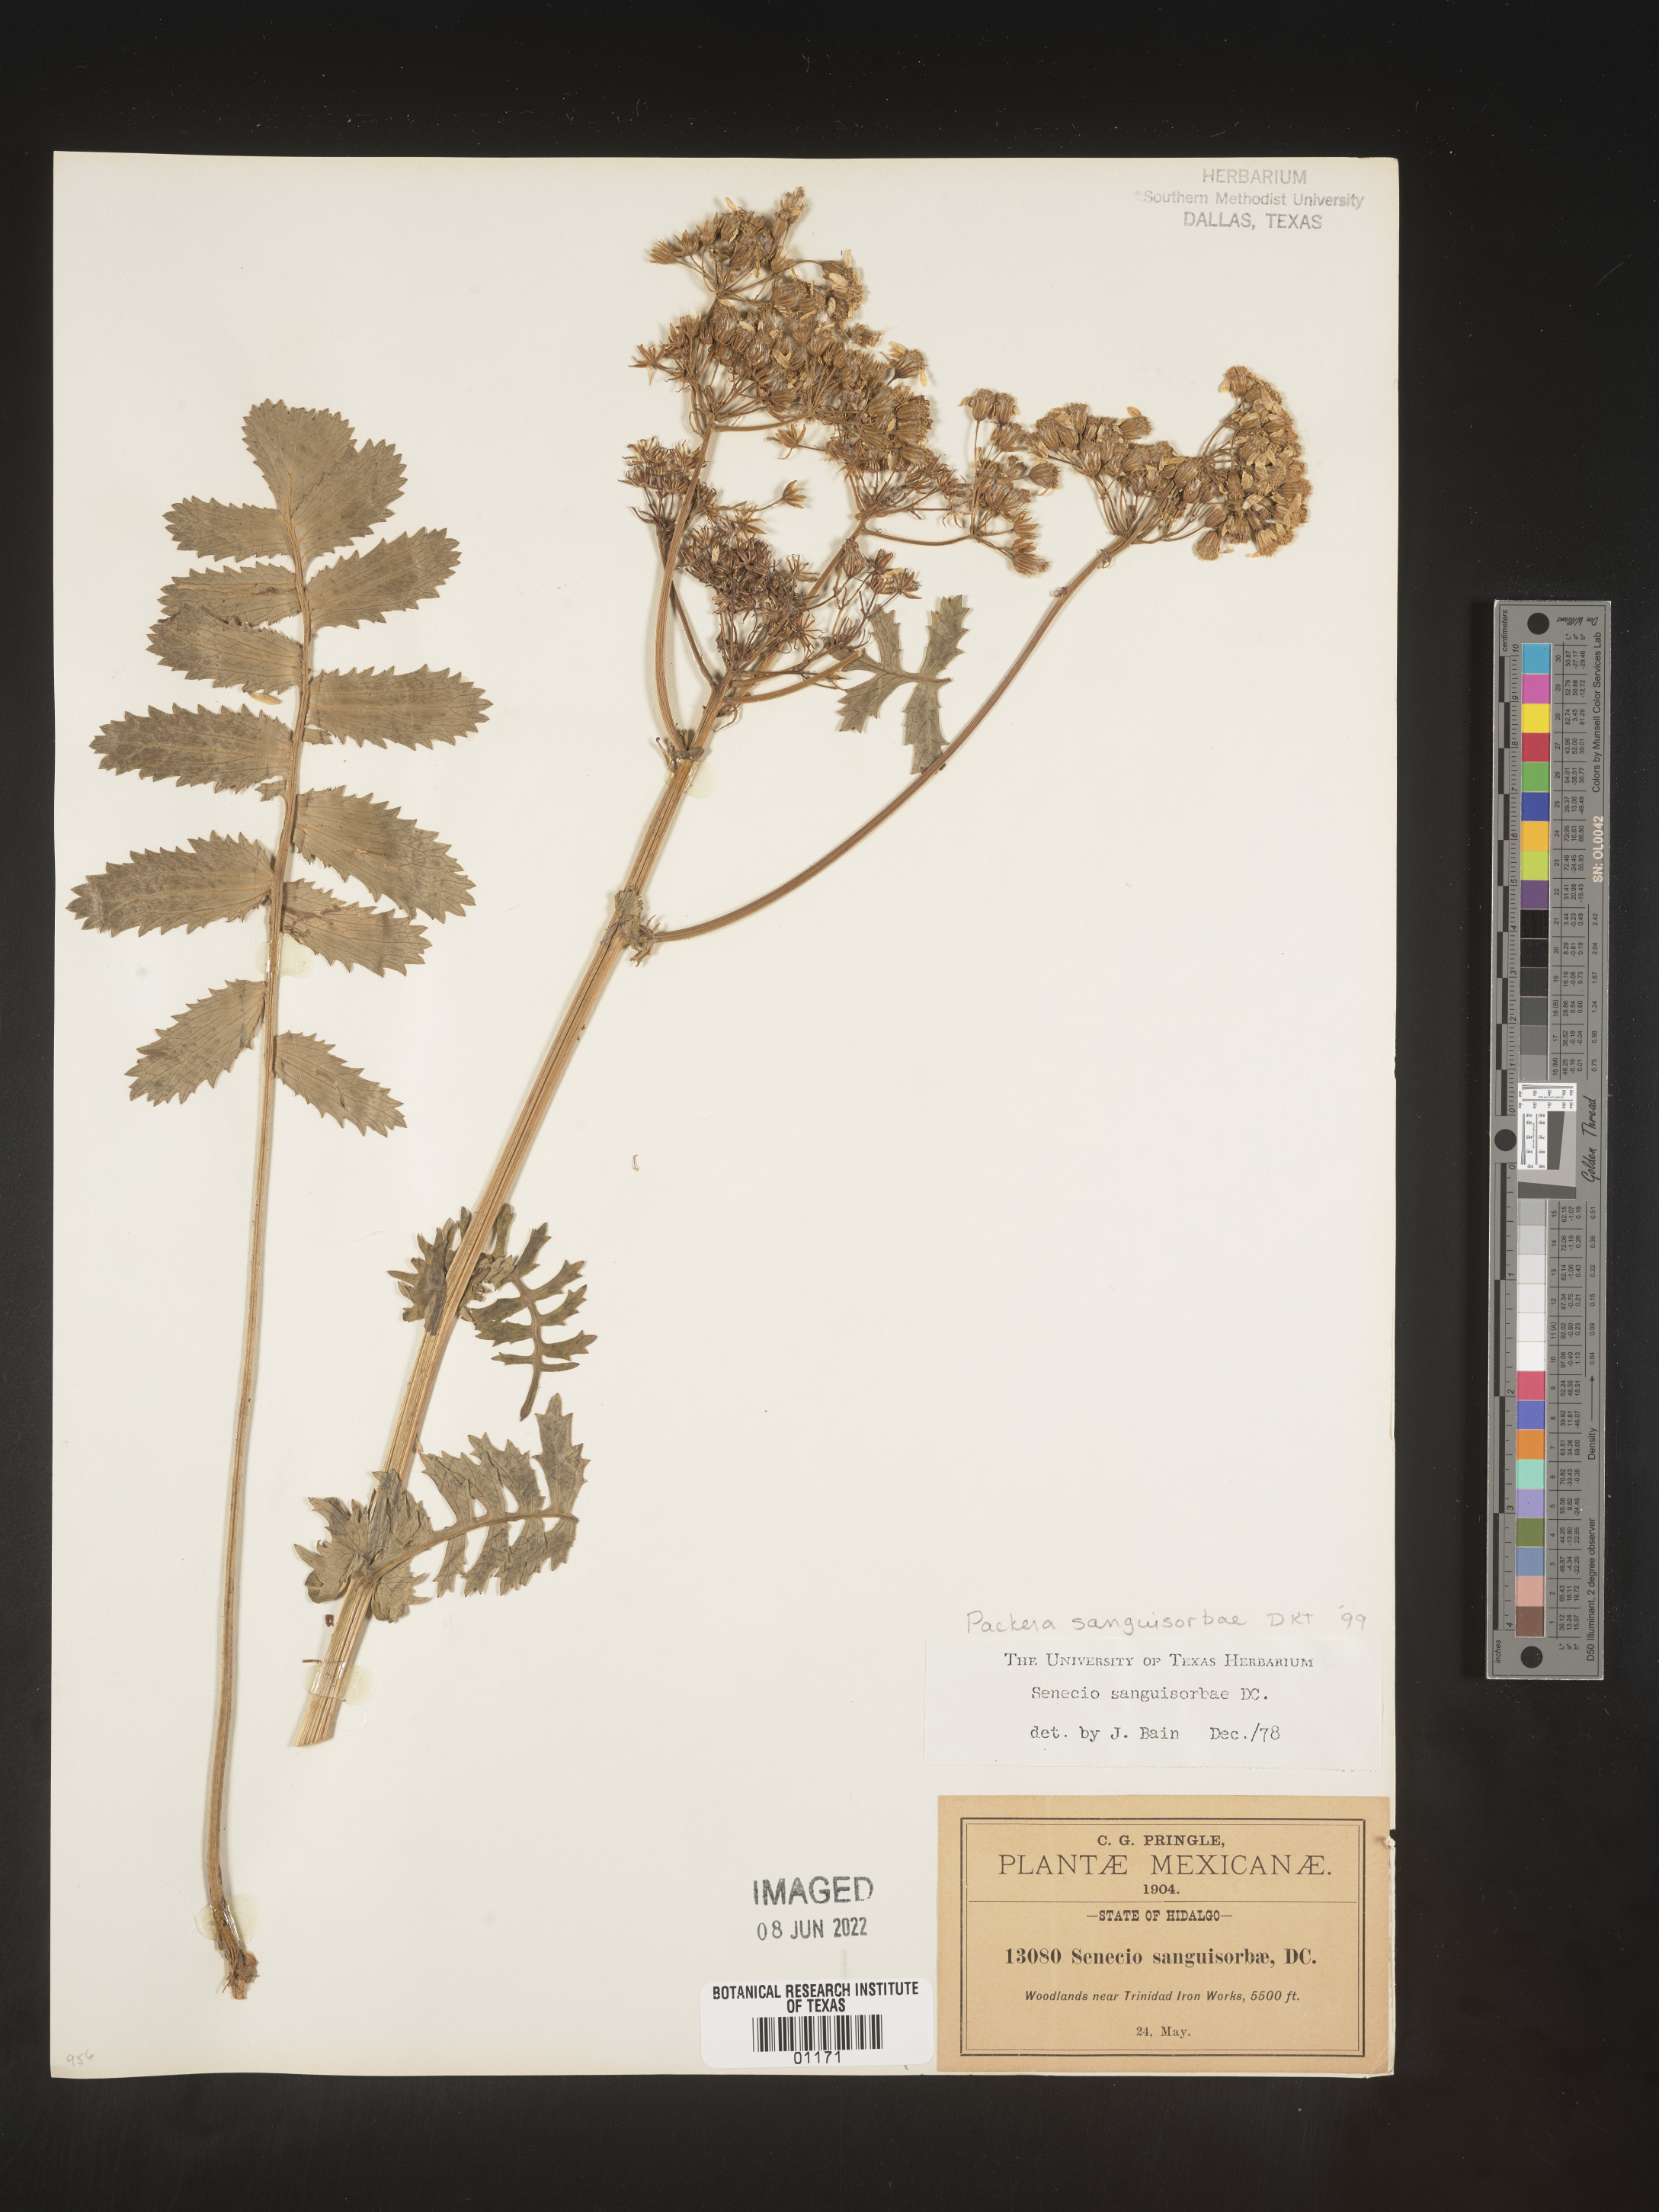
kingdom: Plantae
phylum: Tracheophyta
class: Magnoliopsida
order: Asterales
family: Asteraceae
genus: Packera
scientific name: Packera
